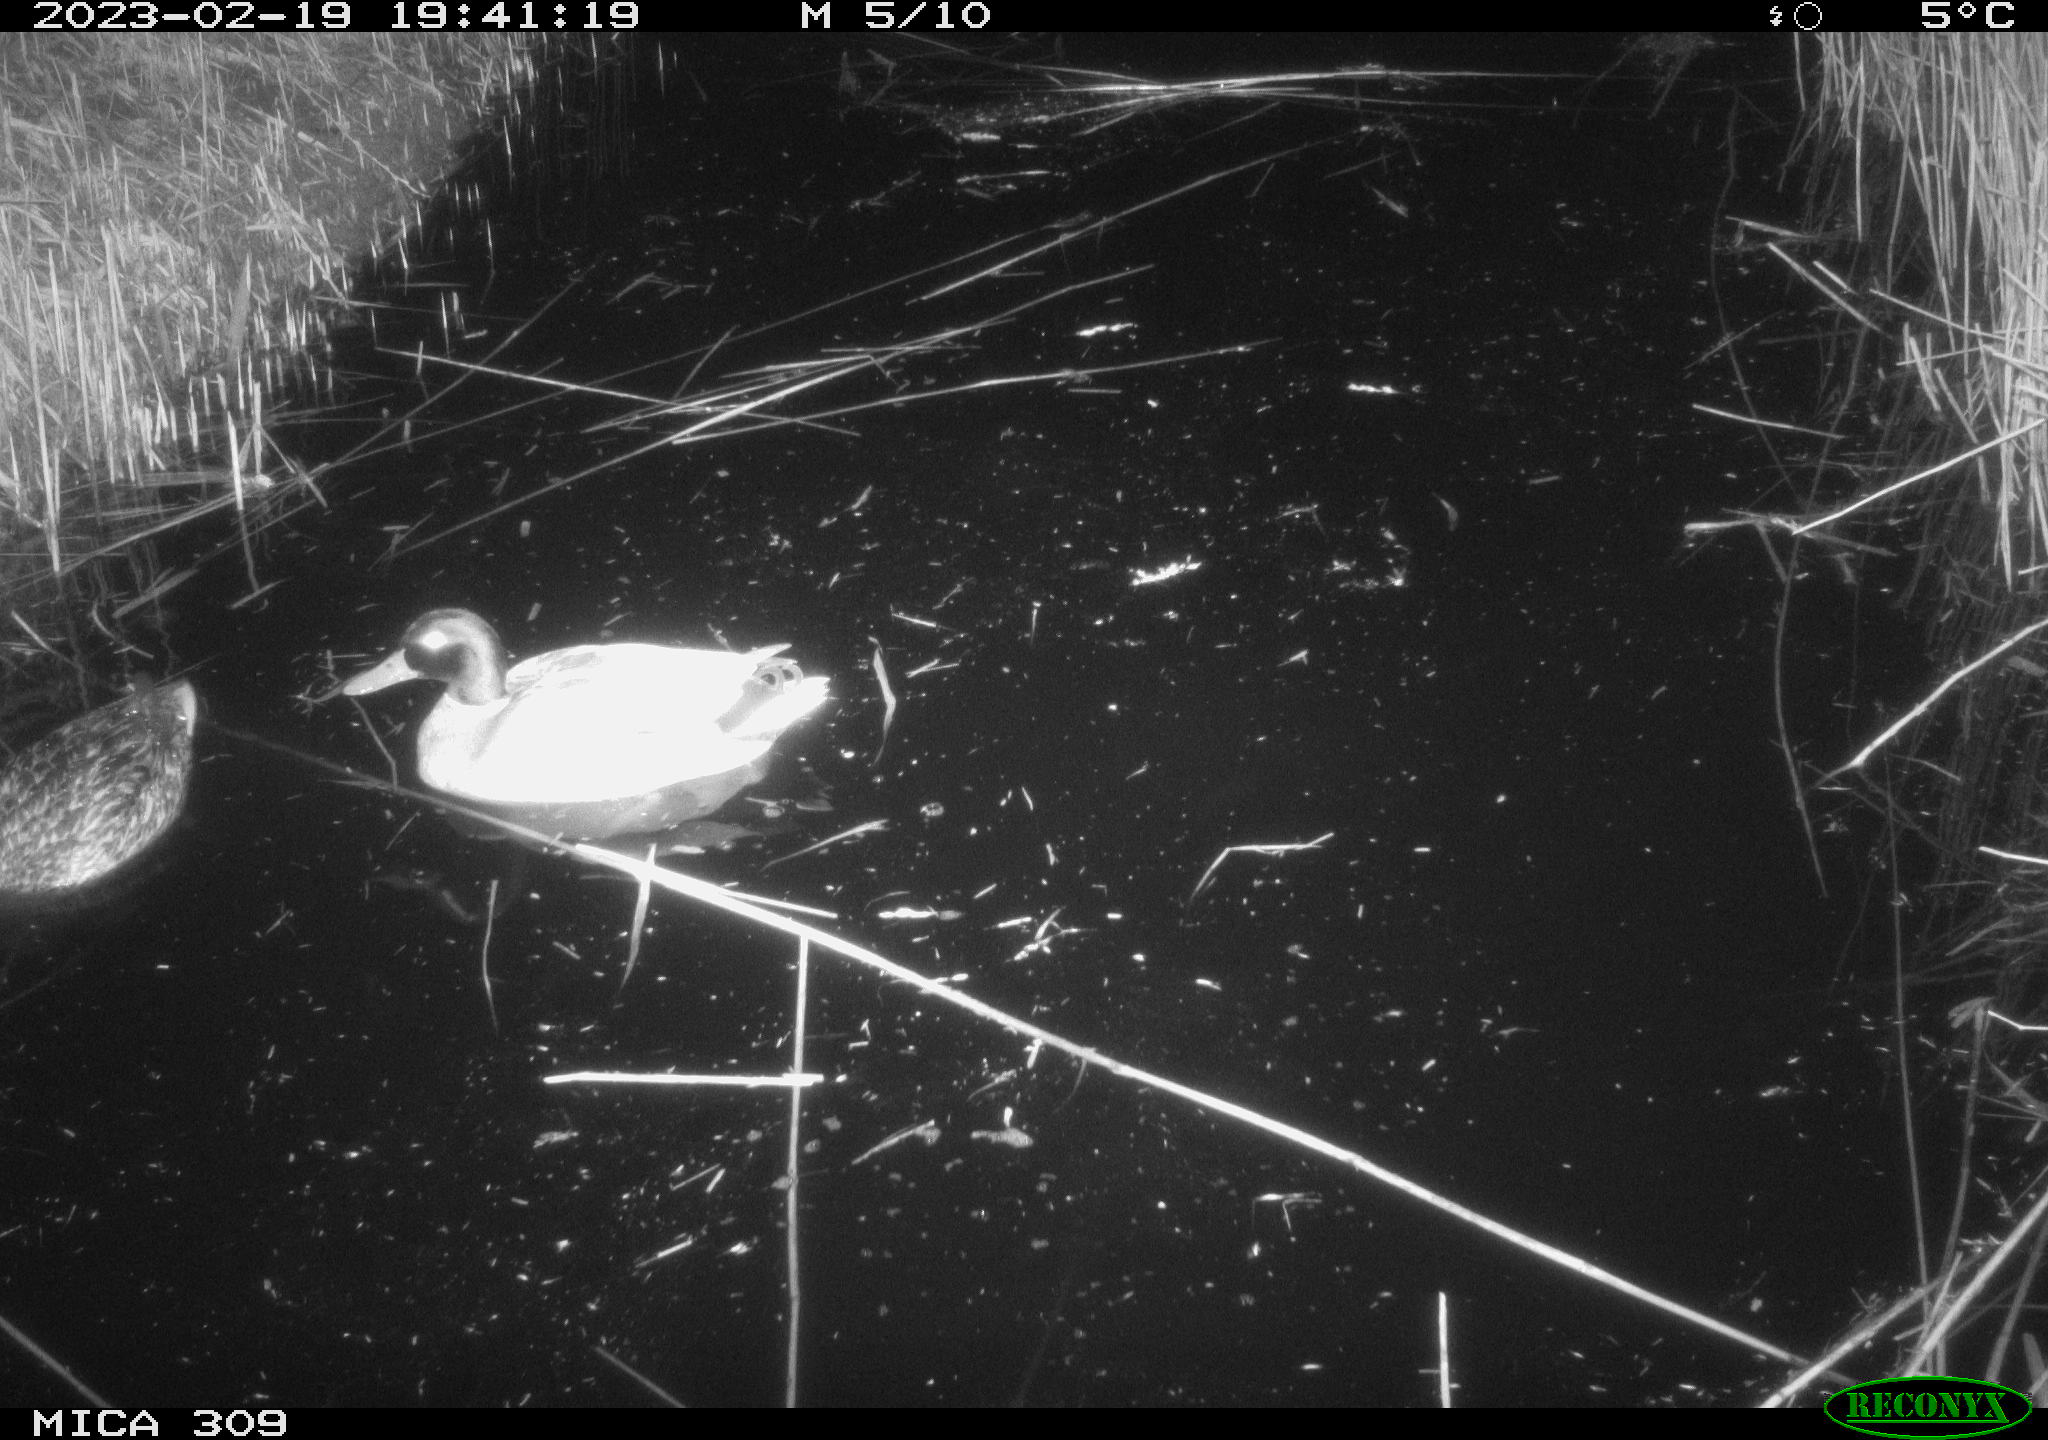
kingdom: Animalia
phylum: Chordata
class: Aves
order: Anseriformes
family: Anatidae
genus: Anas
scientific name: Anas
